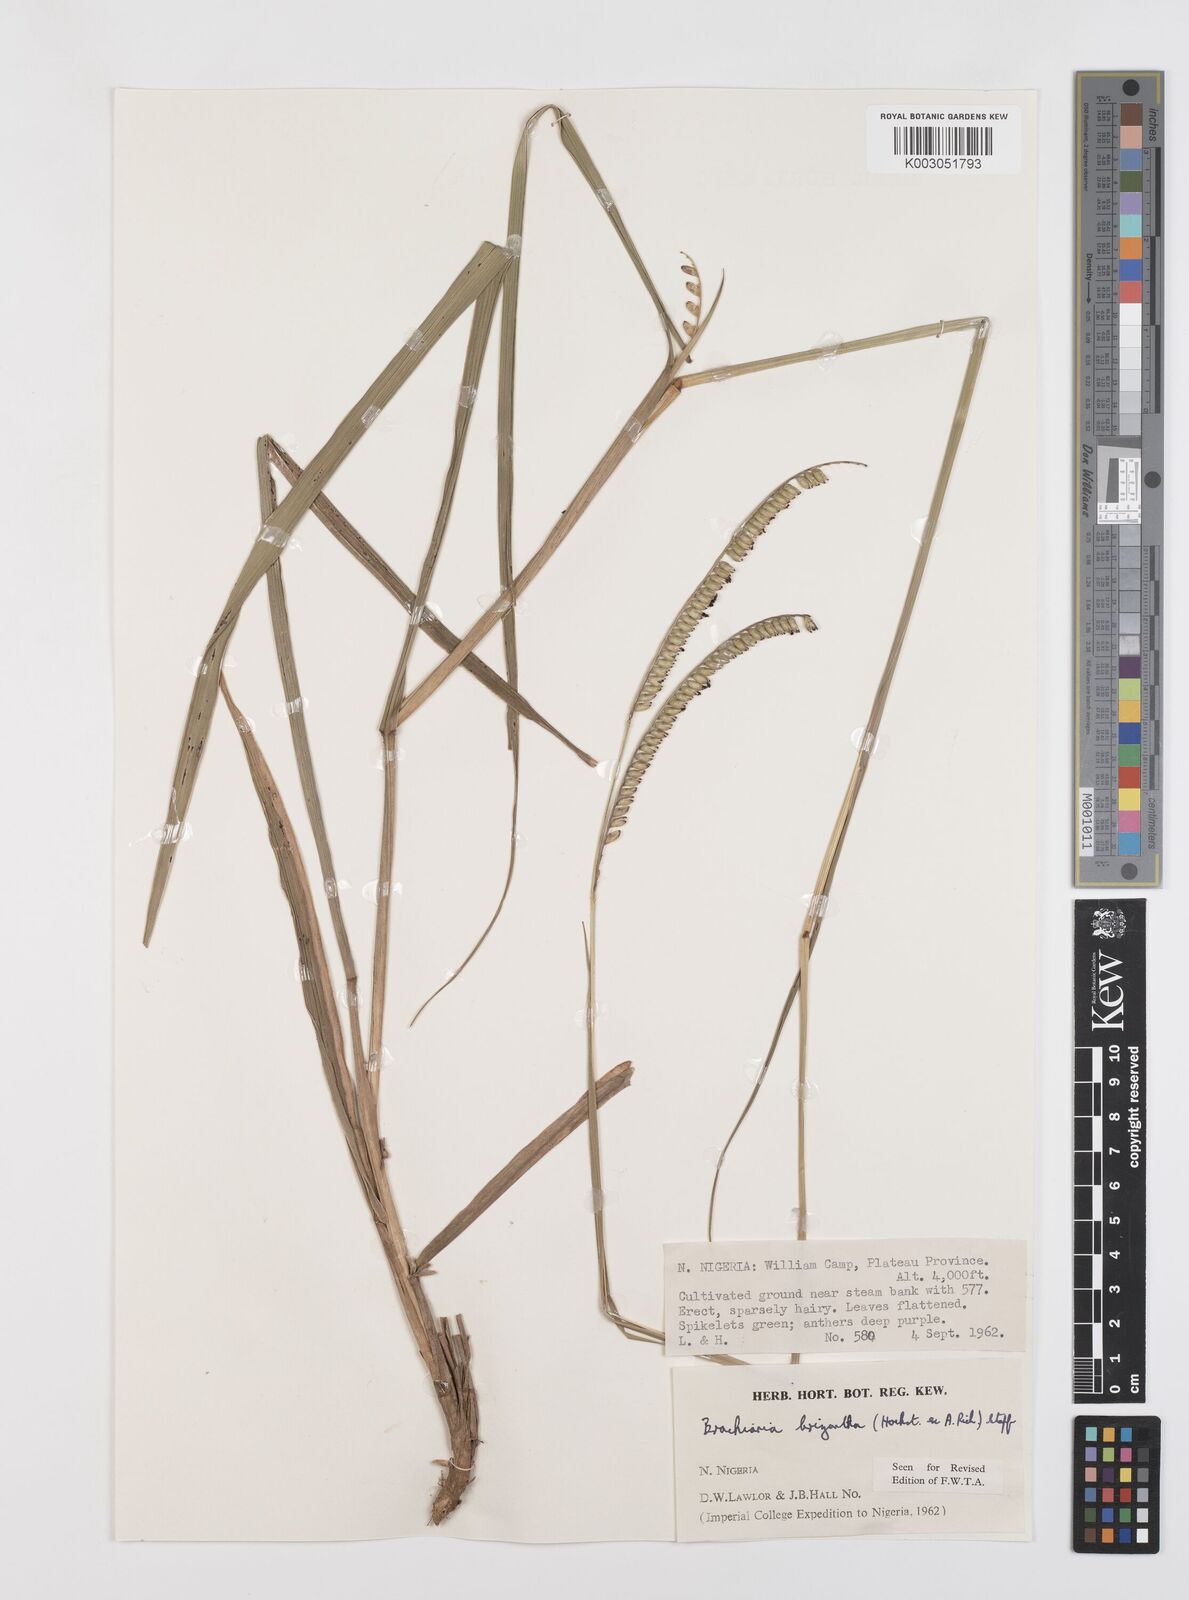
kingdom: Plantae
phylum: Tracheophyta
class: Liliopsida
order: Poales
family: Poaceae
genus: Urochloa
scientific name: Urochloa brizantha
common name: Palisade signalgrass
